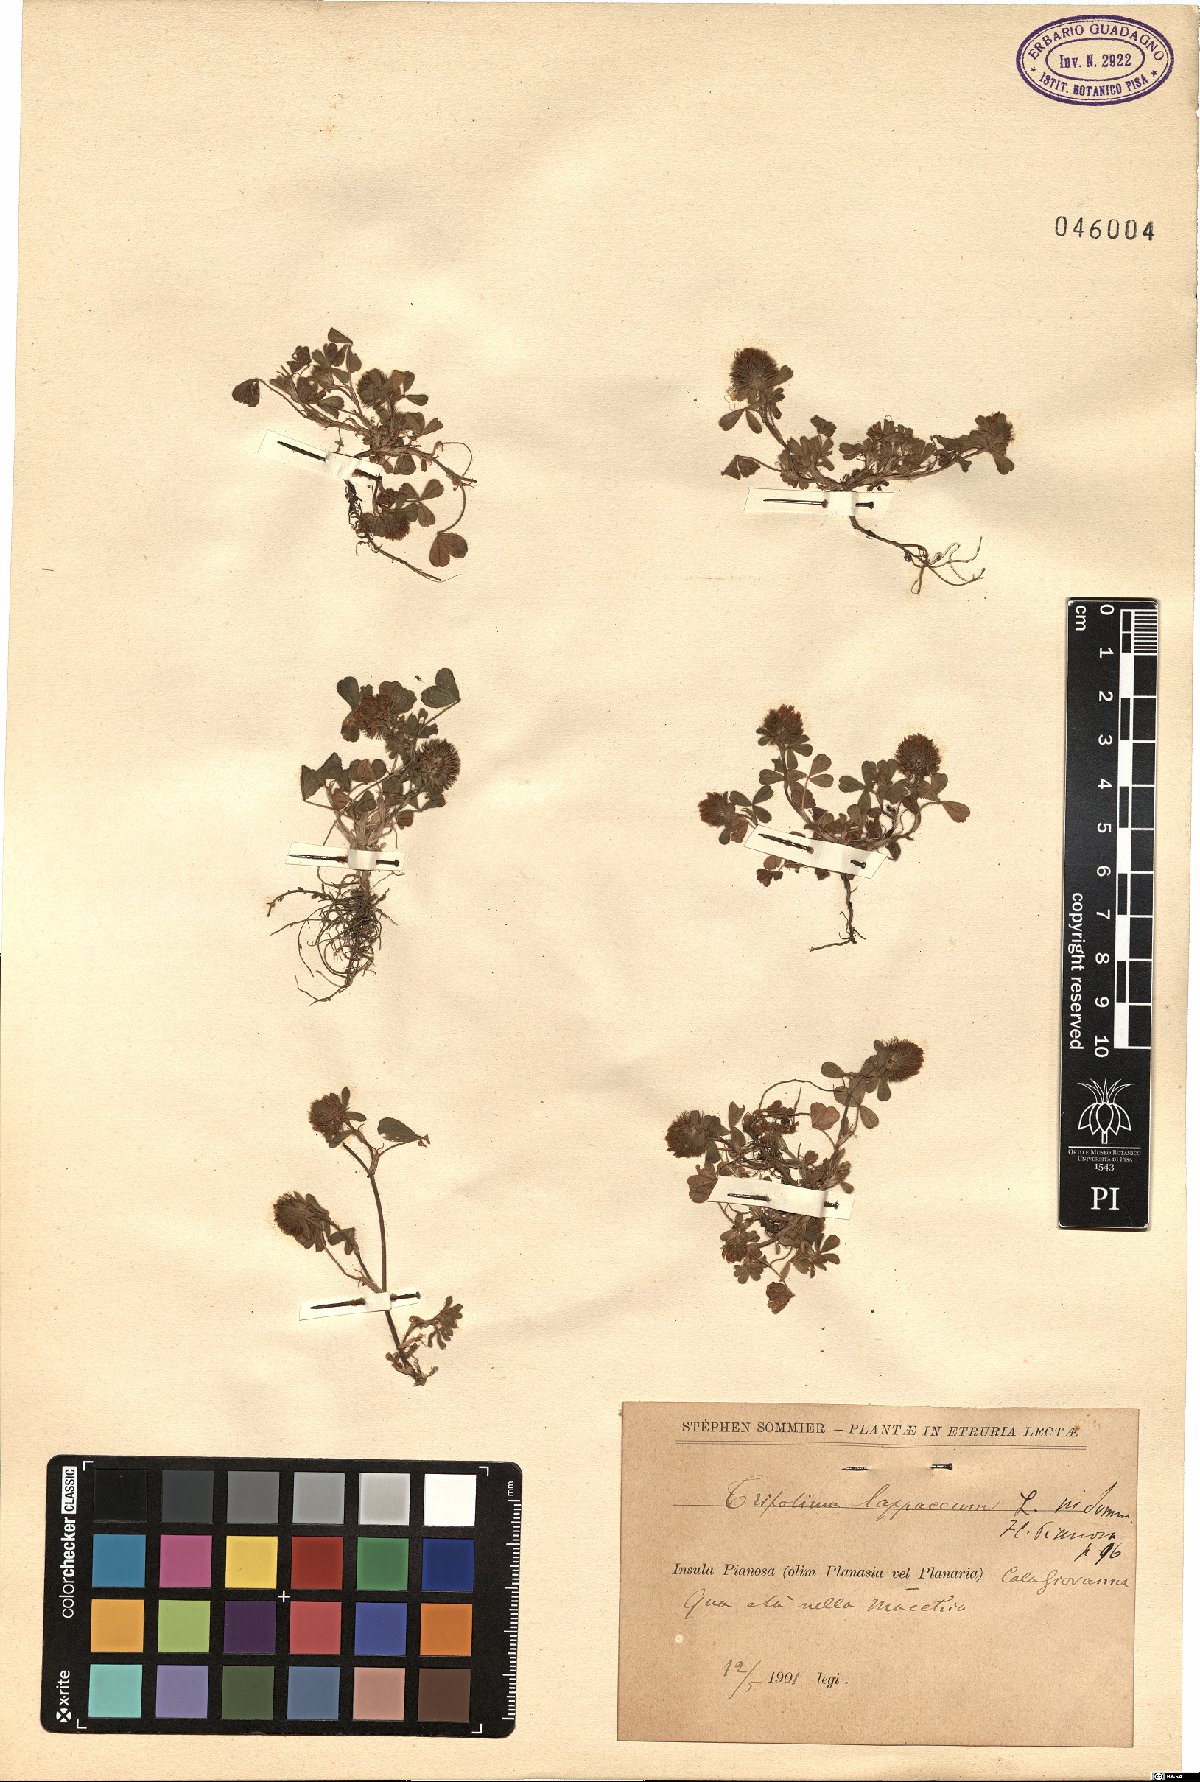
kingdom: Plantae
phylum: Tracheophyta
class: Magnoliopsida
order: Fabales
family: Fabaceae
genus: Trifolium
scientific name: Trifolium lappaceum
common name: Bur clover
